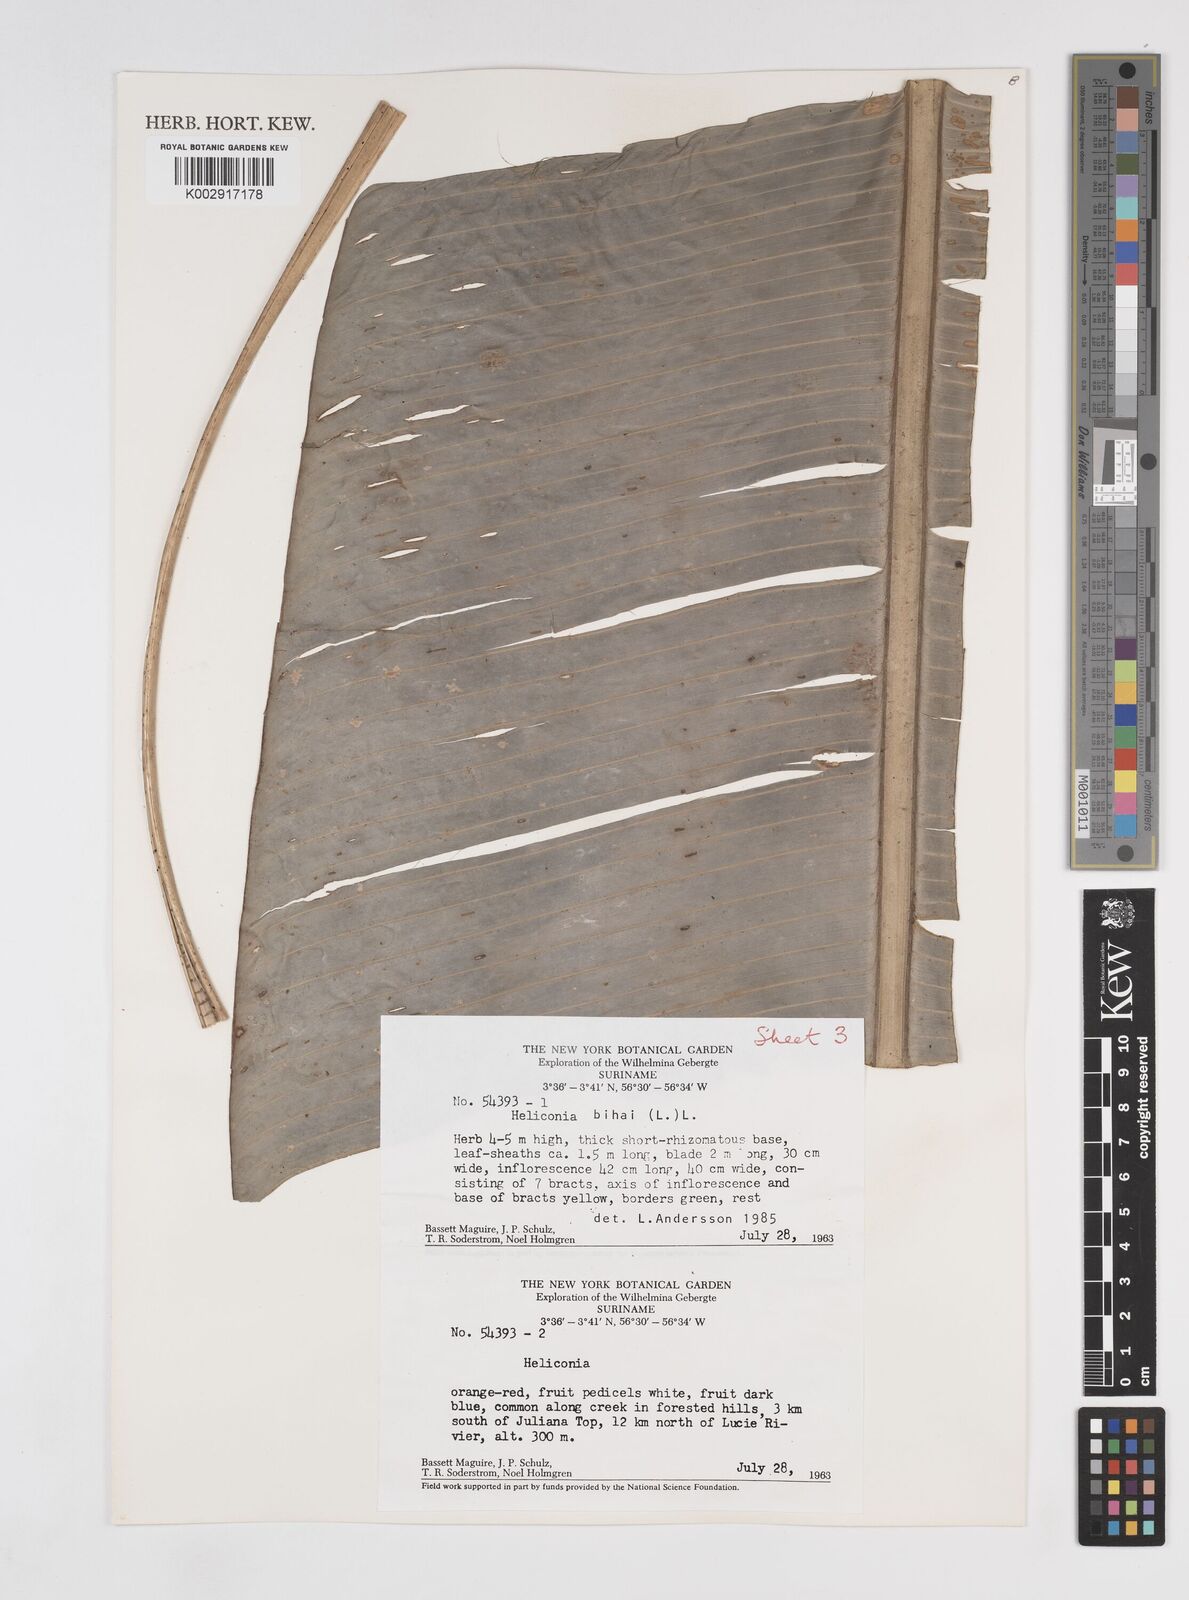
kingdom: Plantae
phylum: Tracheophyta
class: Liliopsida
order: Zingiberales
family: Heliconiaceae
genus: Heliconia
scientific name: Heliconia bihai
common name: Macaw flower
